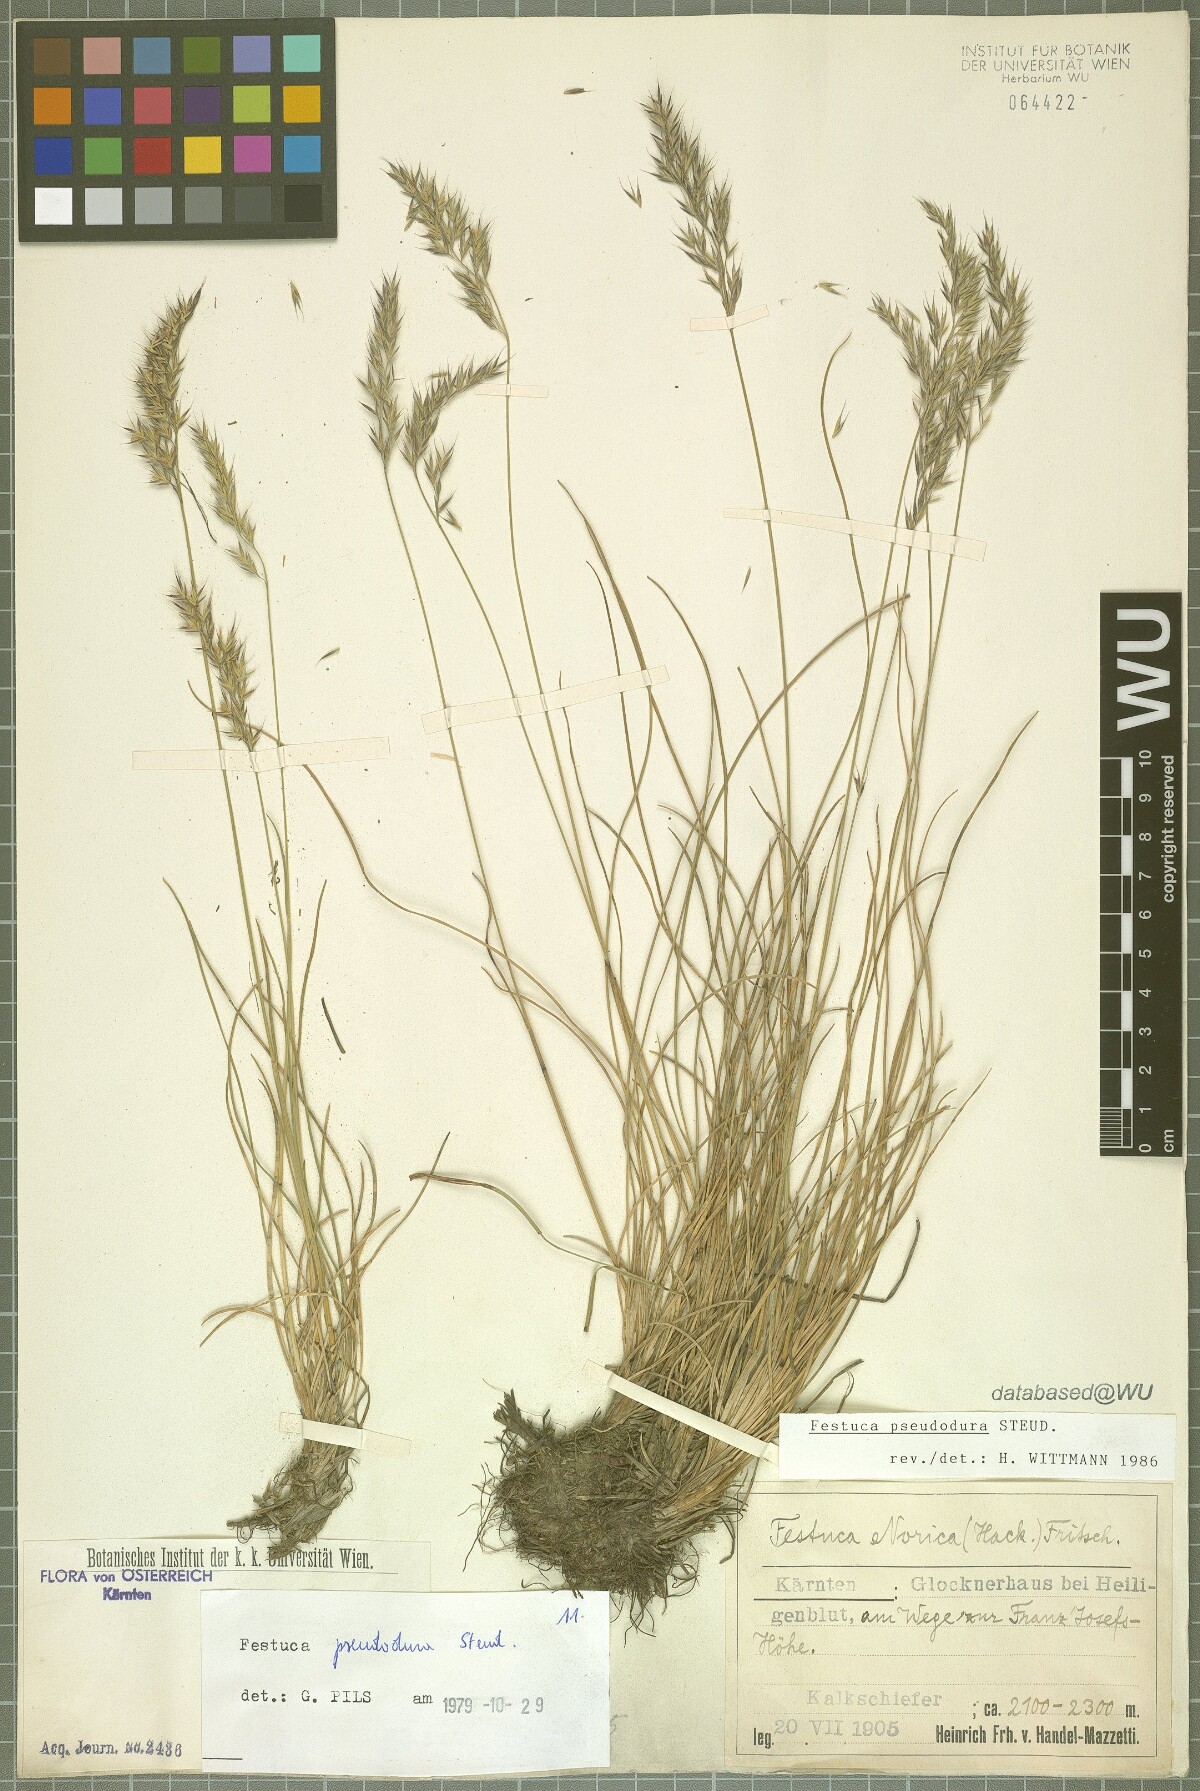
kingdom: Plantae
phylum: Tracheophyta
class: Liliopsida
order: Poales
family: Poaceae
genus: Festuca
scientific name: Festuca pseudodura
